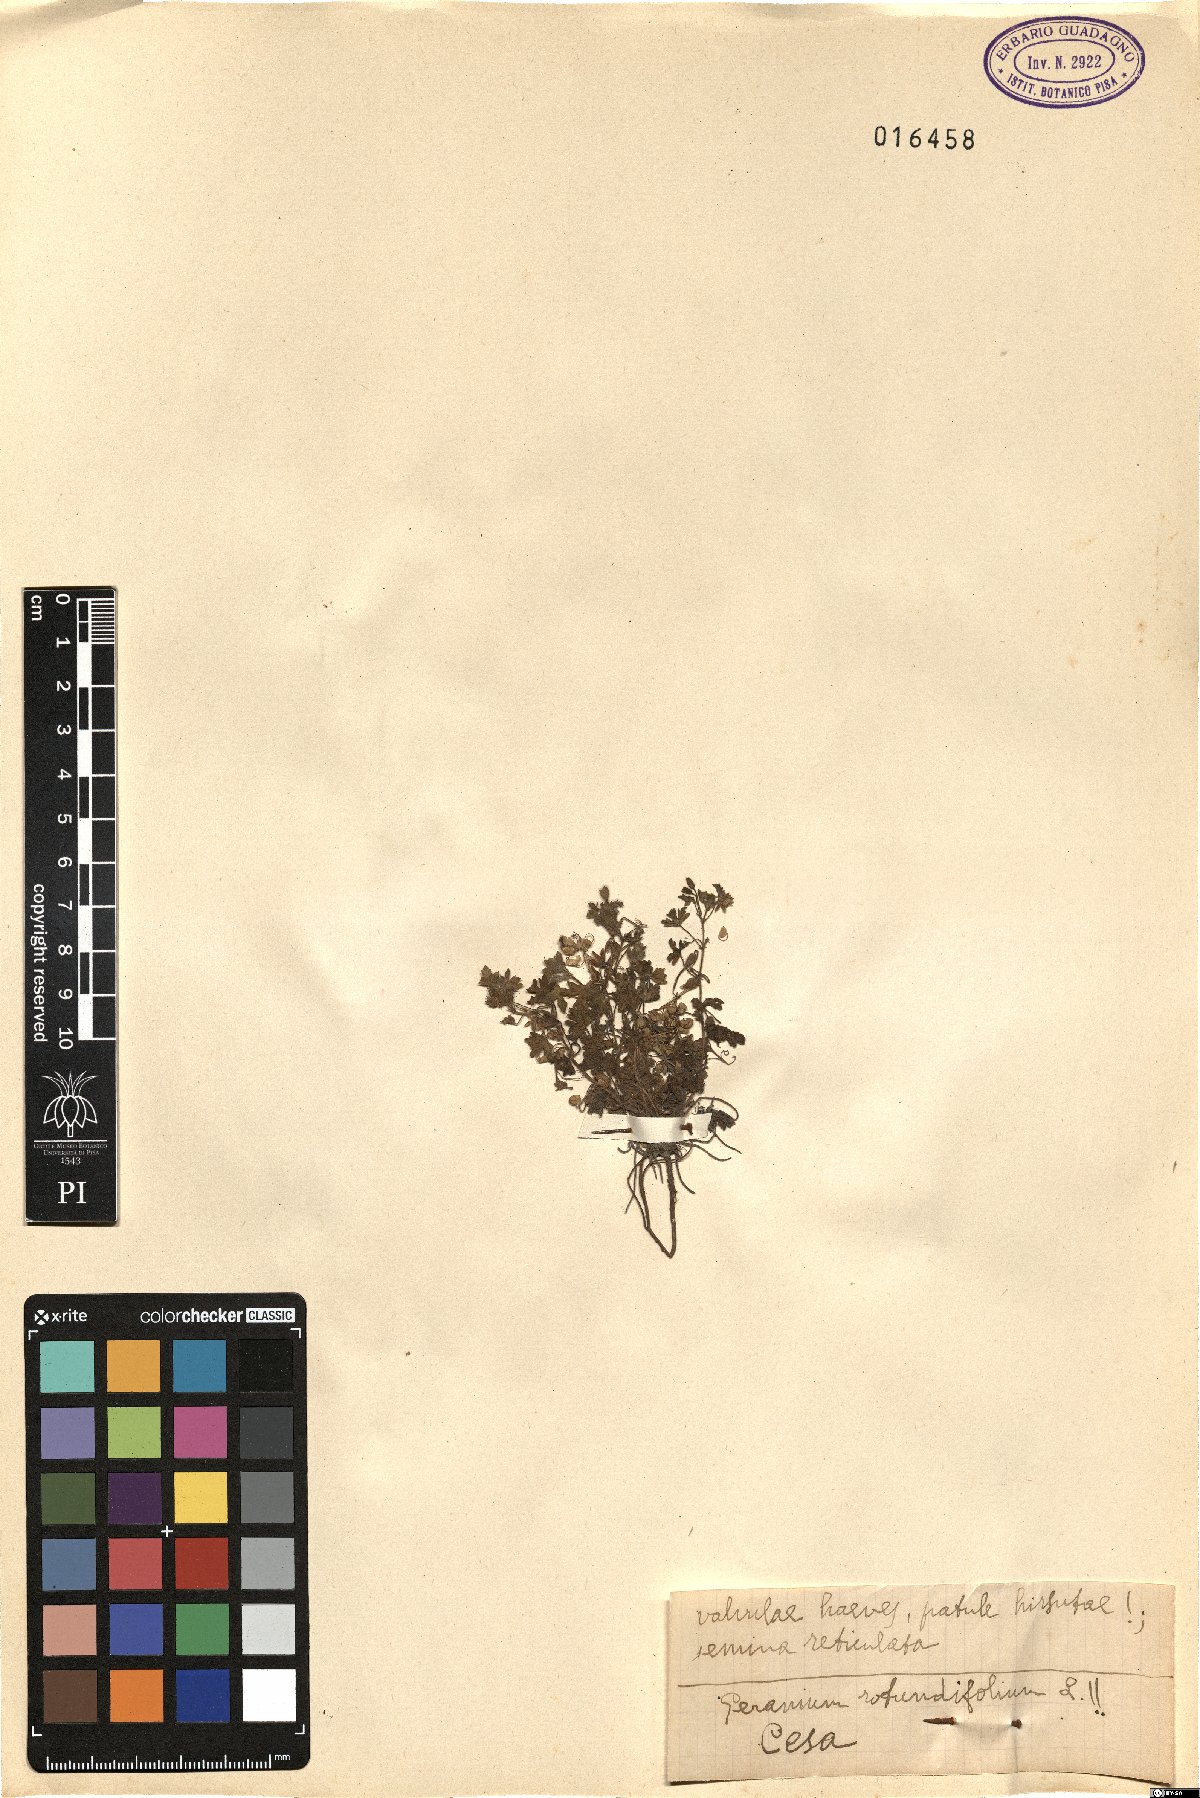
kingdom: Plantae
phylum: Tracheophyta
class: Magnoliopsida
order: Geraniales
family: Geraniaceae
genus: Geranium
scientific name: Geranium rotundifolium
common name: Round-leaved crane's-bill
